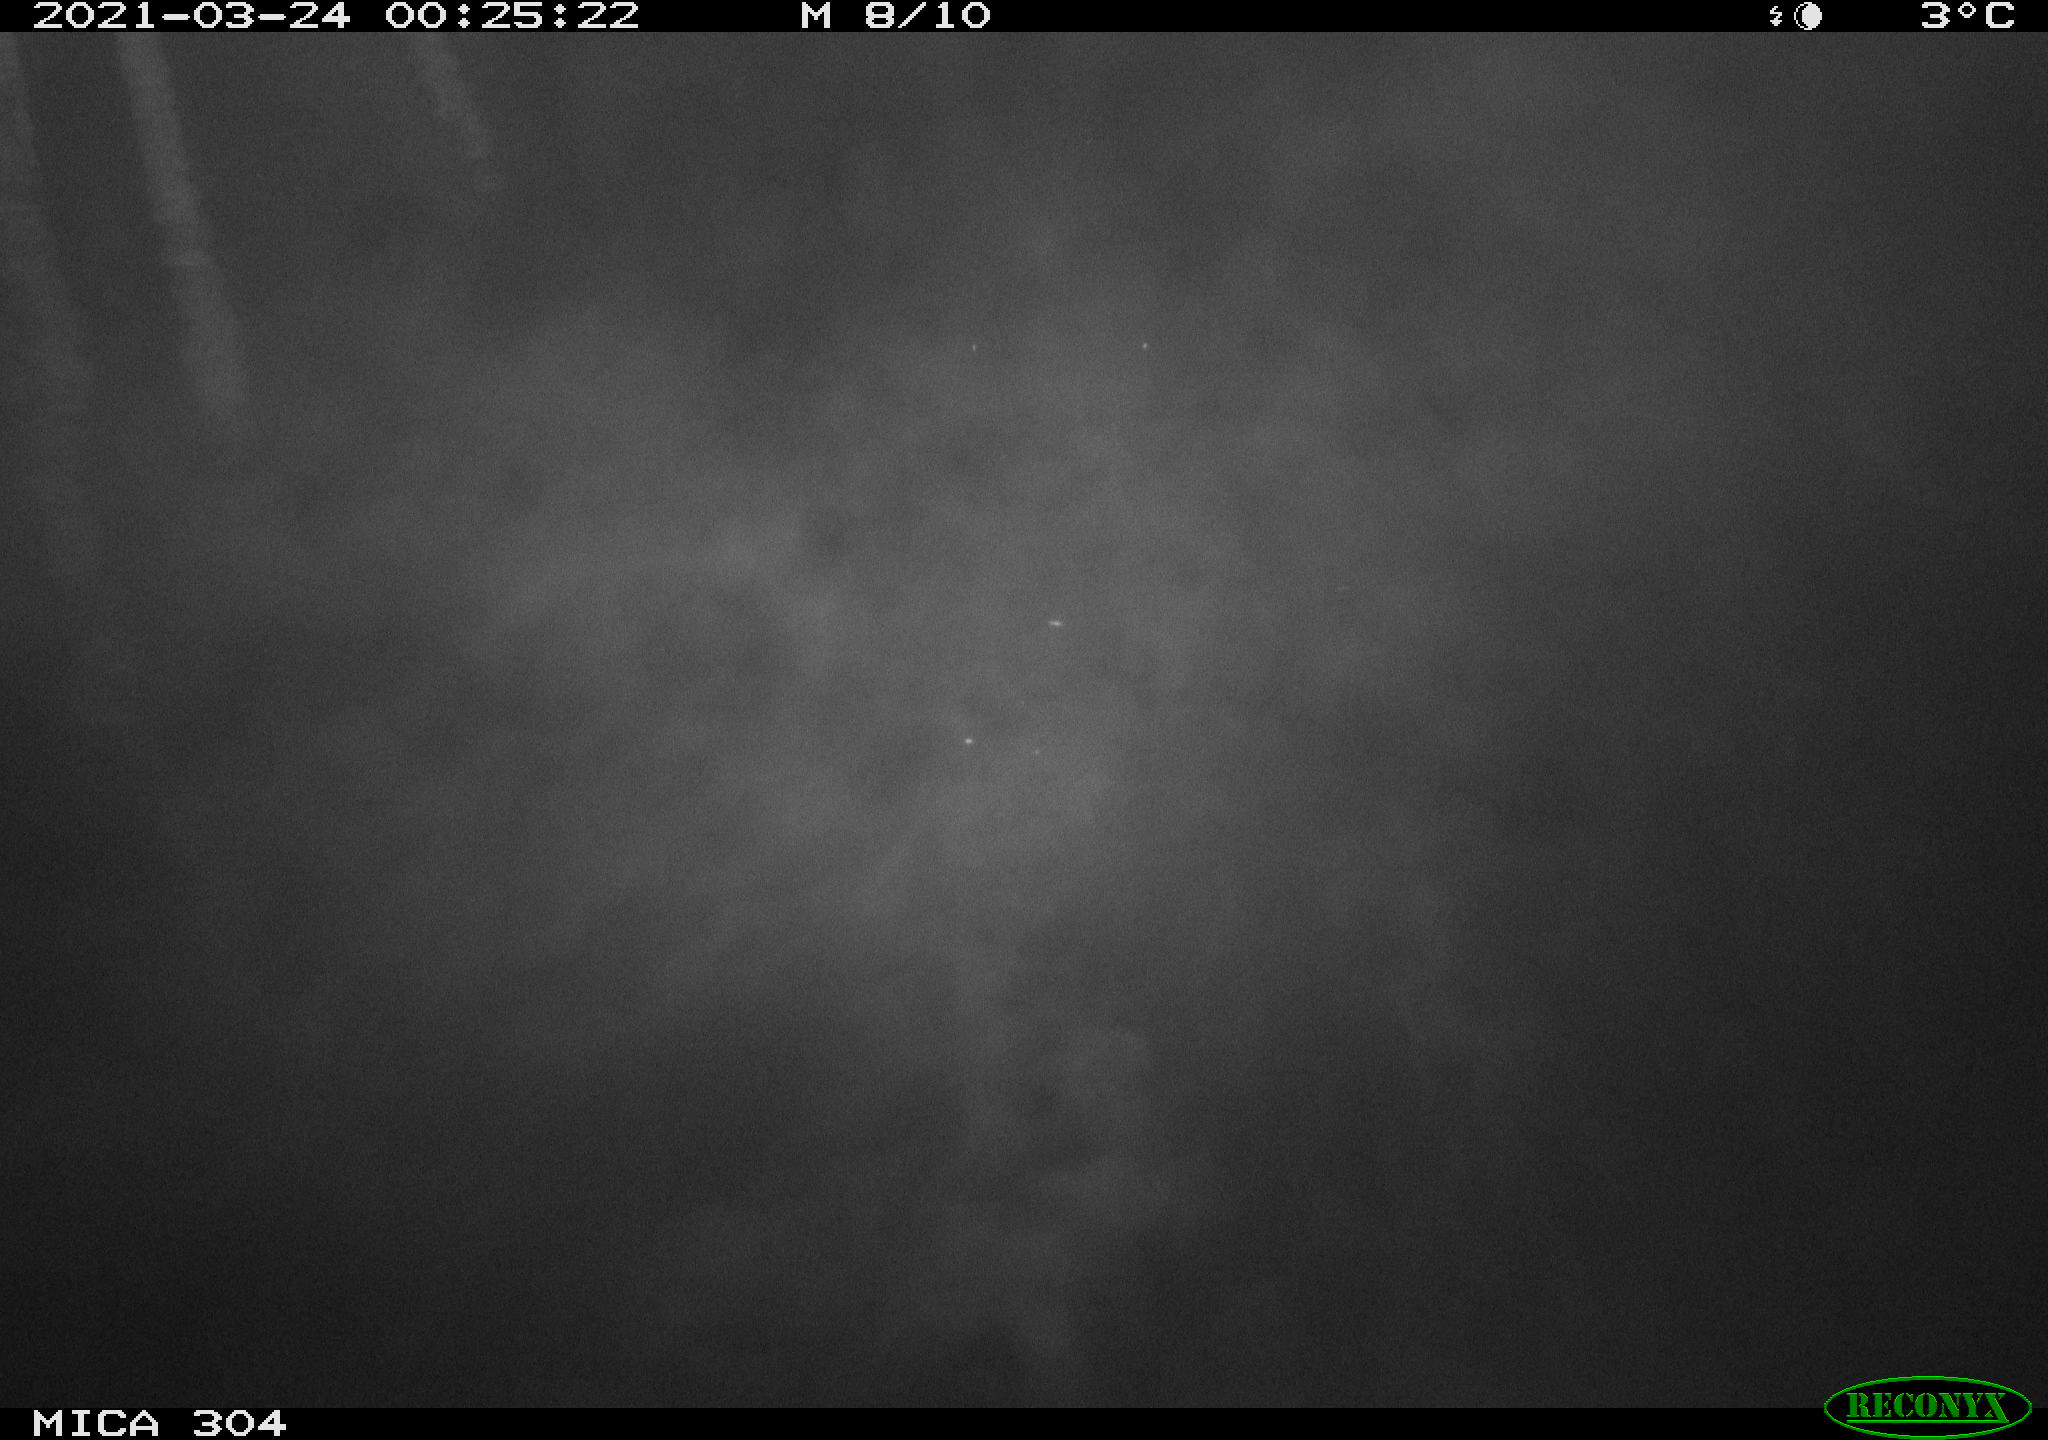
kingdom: Animalia
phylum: Chordata
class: Aves
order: Anseriformes
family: Anatidae
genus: Anas
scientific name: Anas platyrhynchos
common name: Mallard
